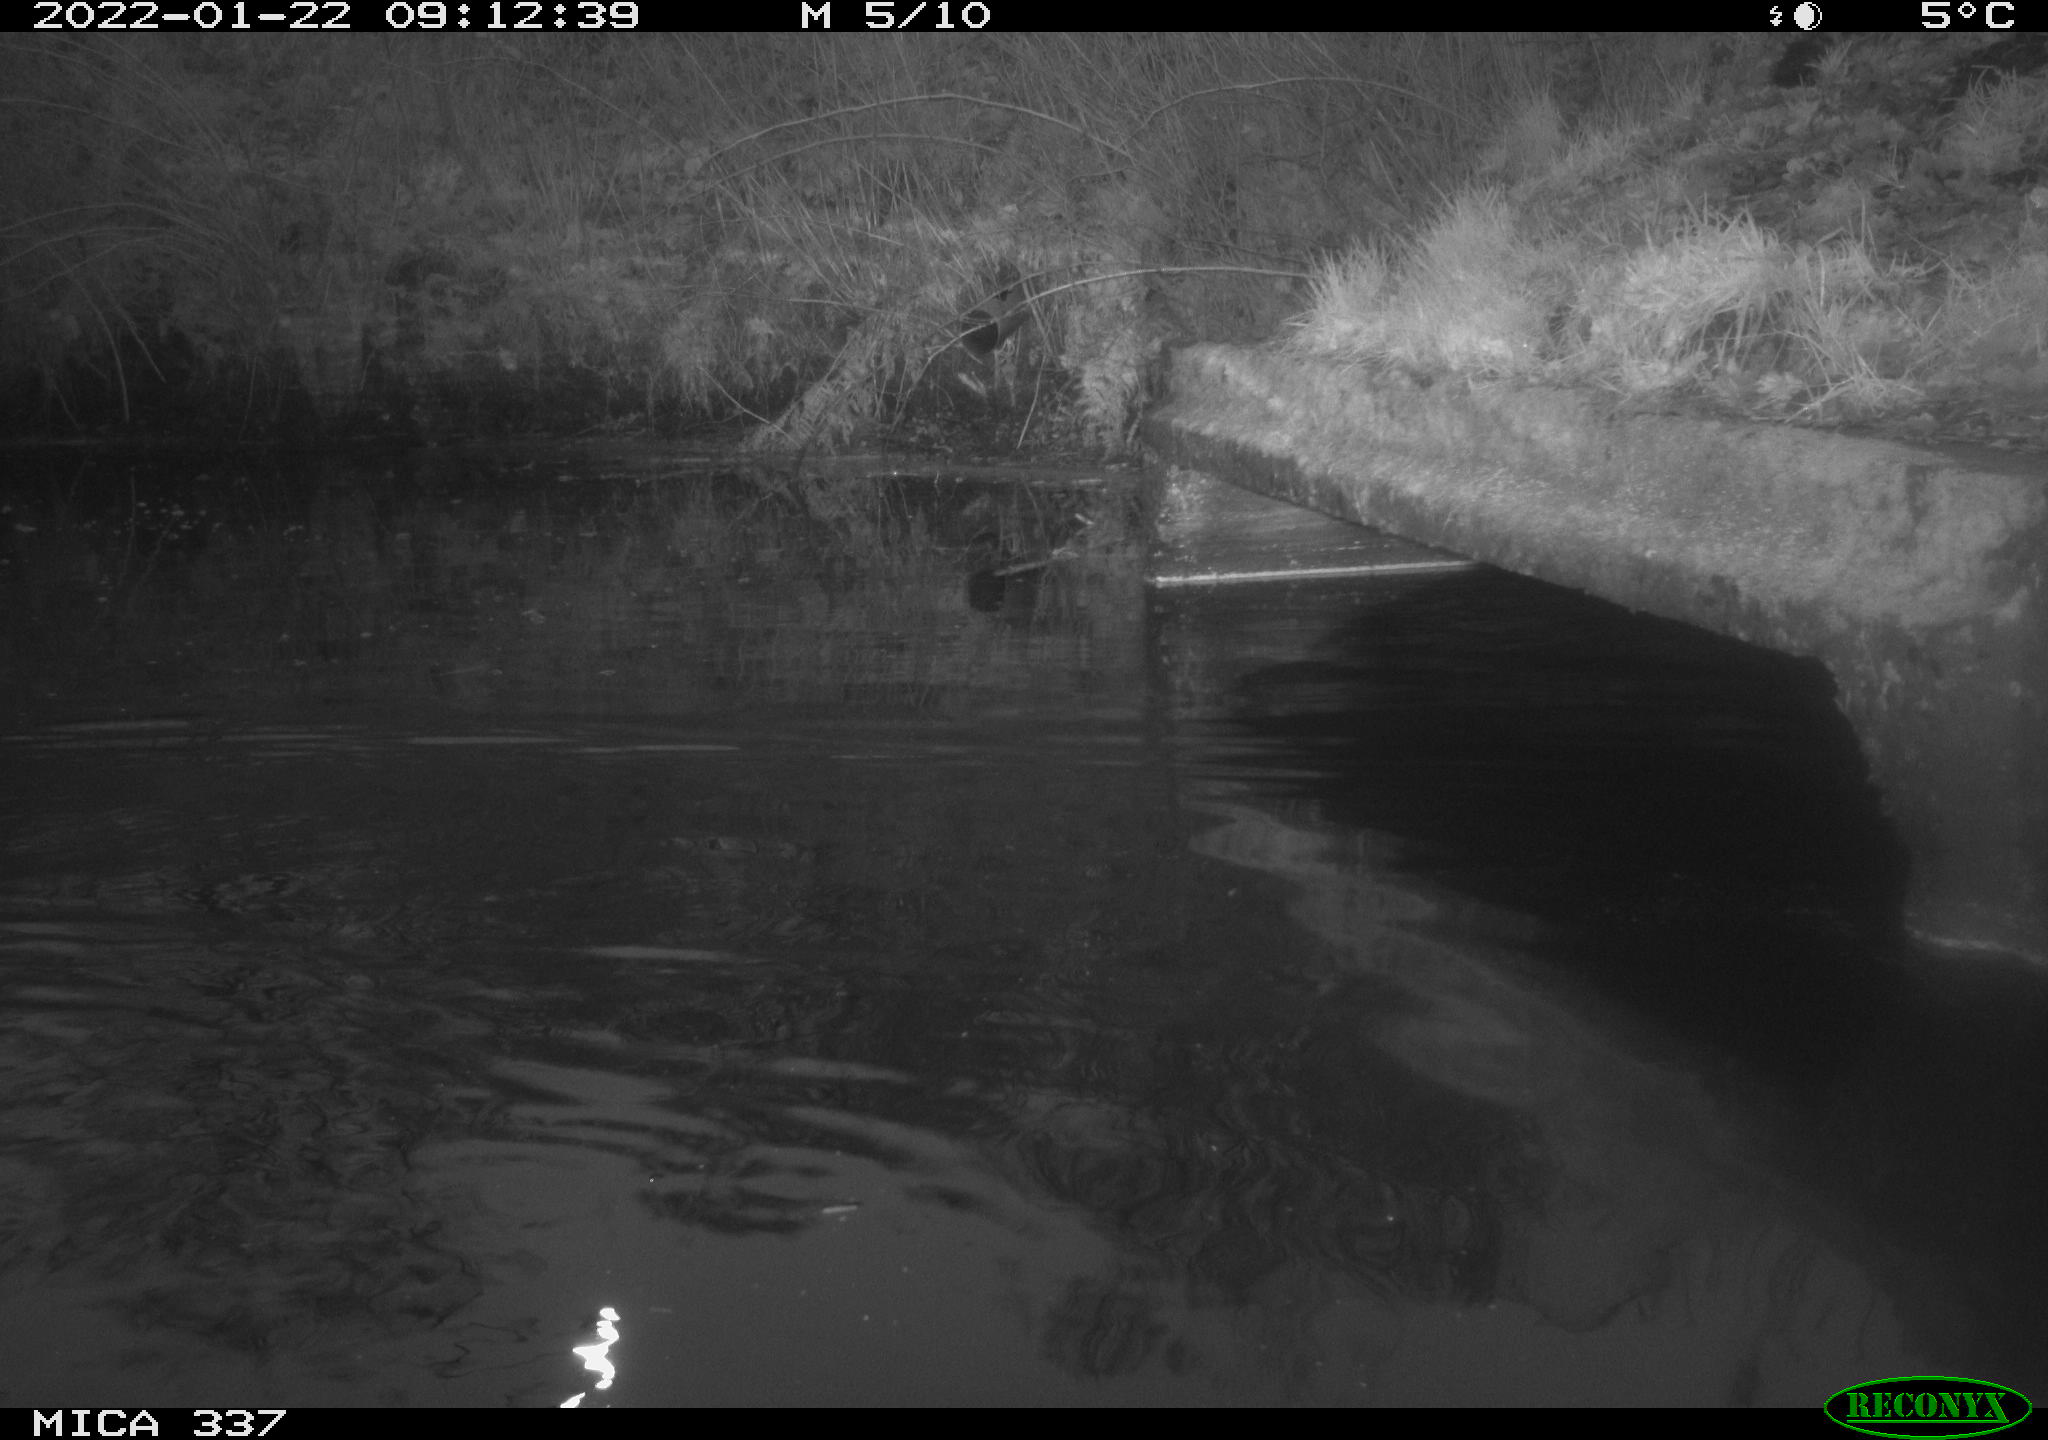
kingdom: Animalia
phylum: Chordata
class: Aves
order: Anseriformes
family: Anatidae
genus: Anas
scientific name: Anas platyrhynchos
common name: Mallard
